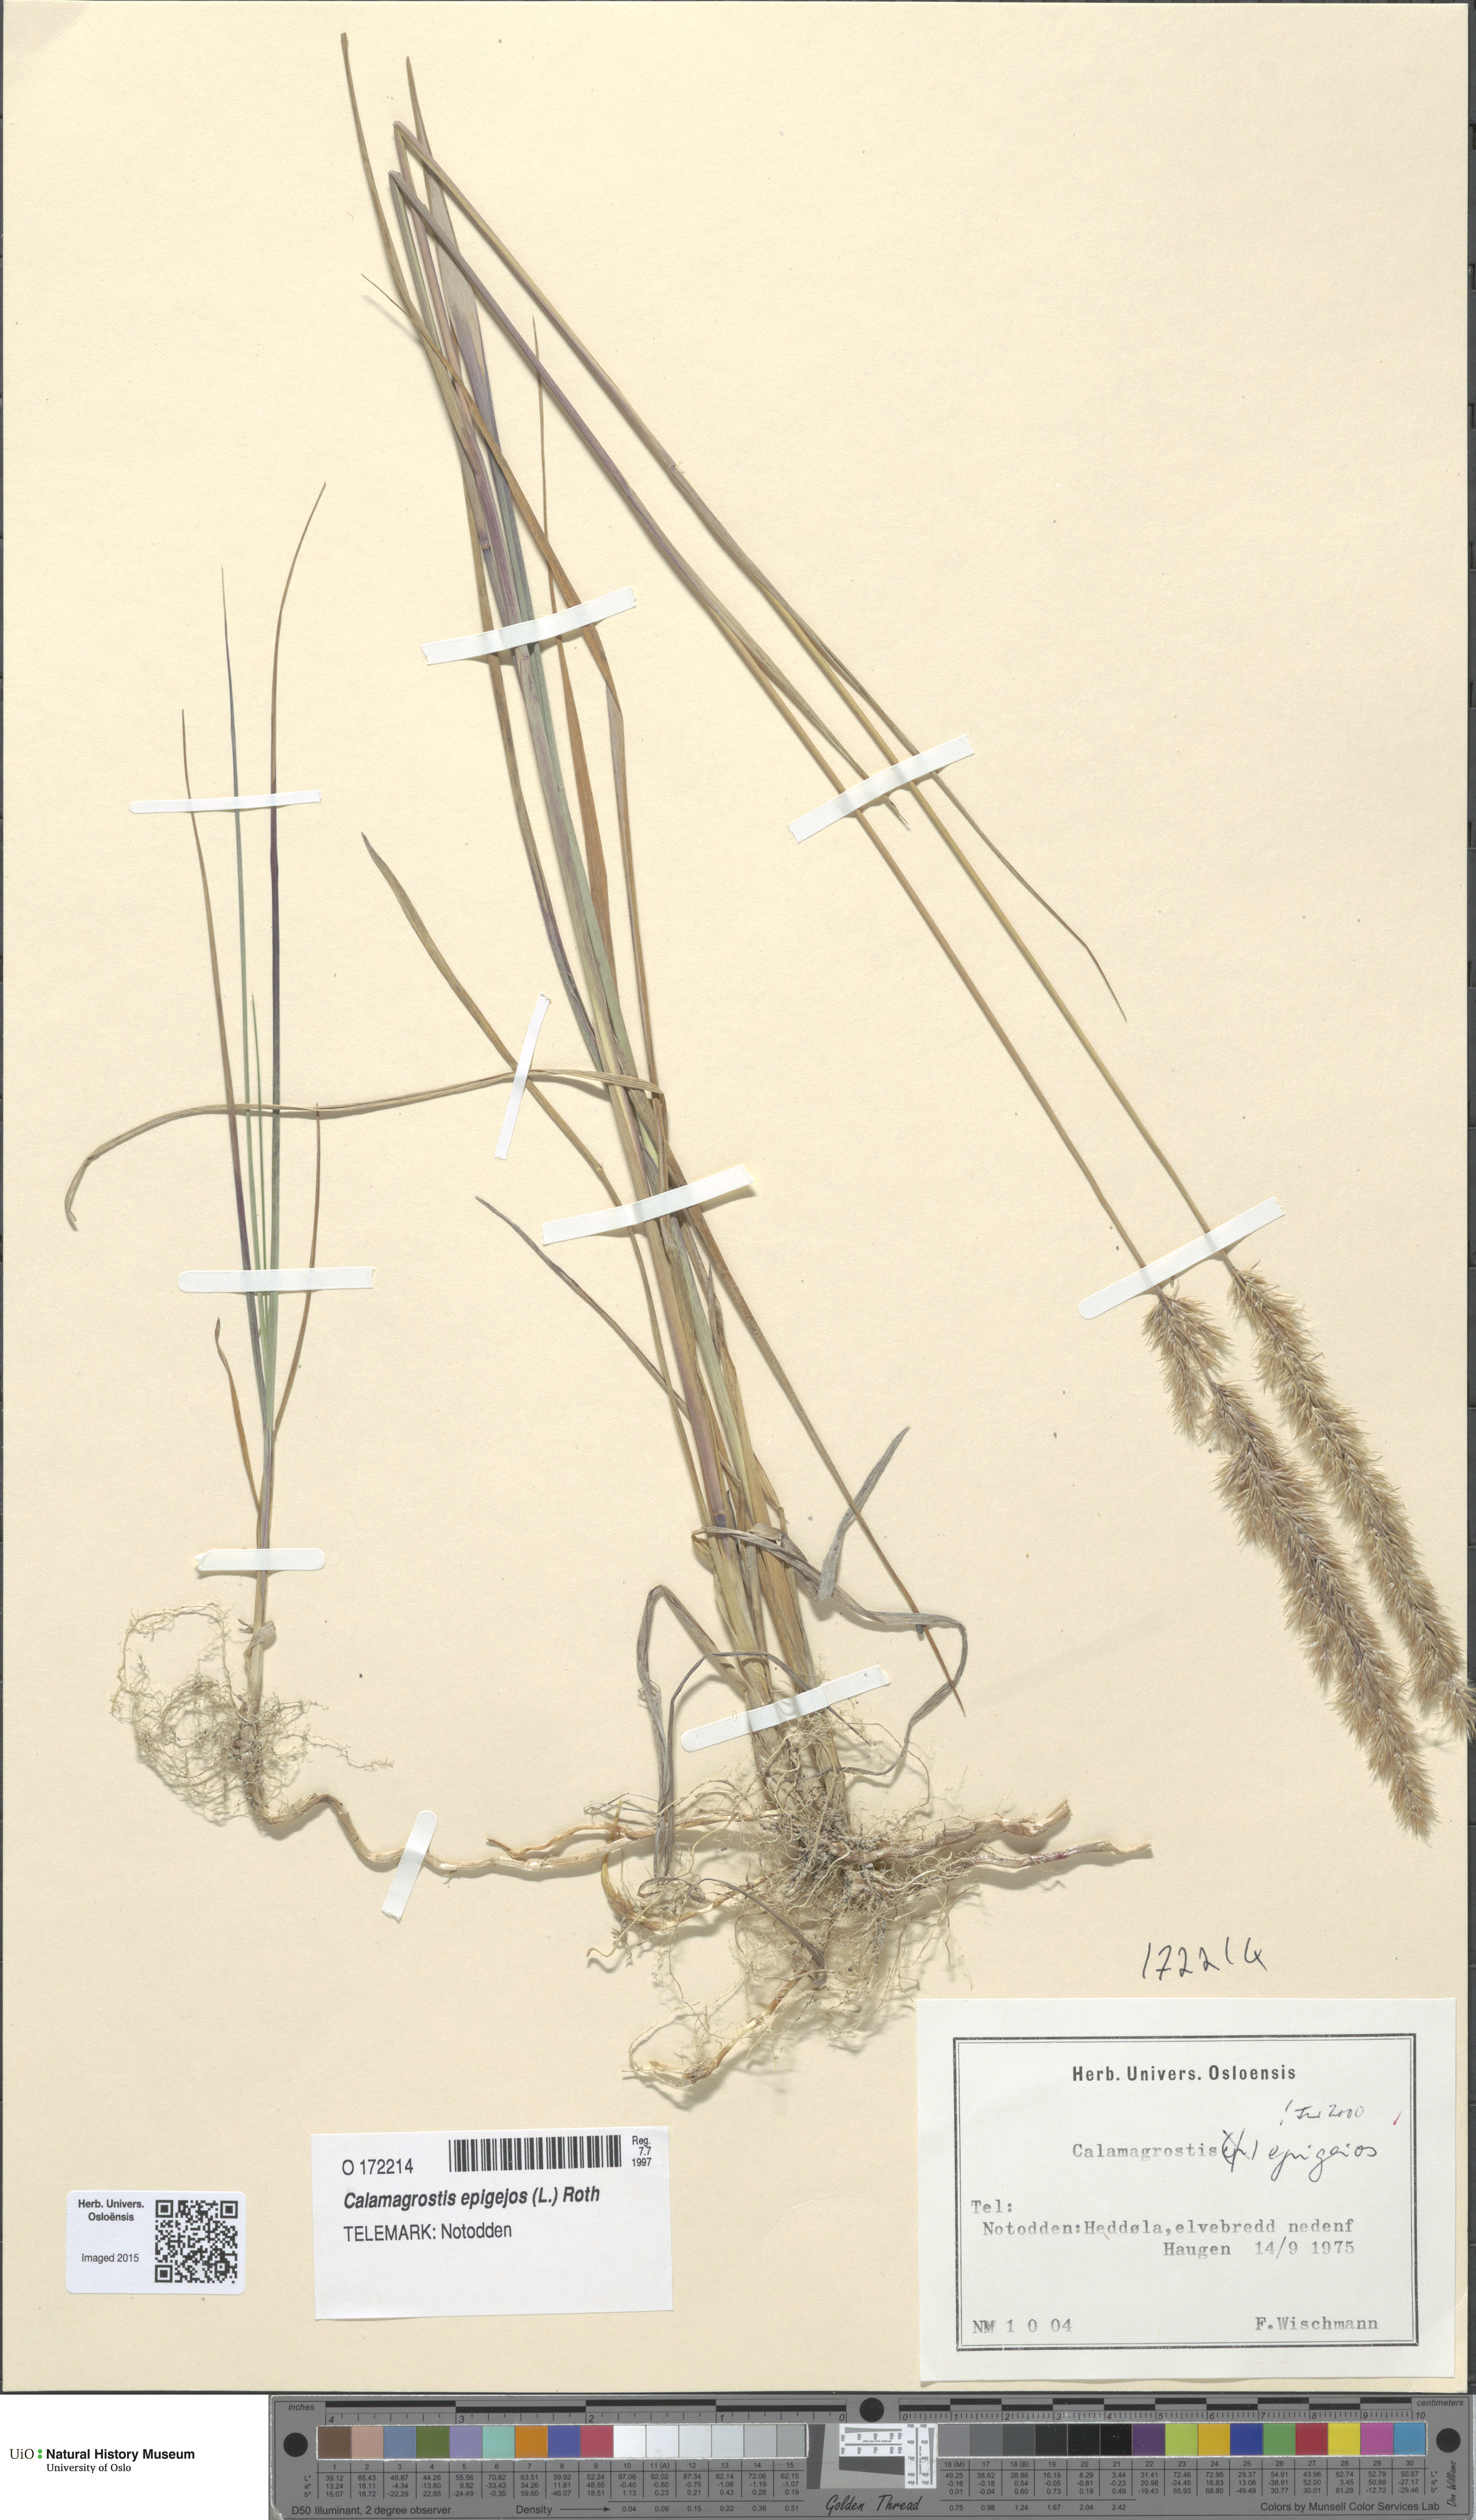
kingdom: Plantae
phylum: Tracheophyta
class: Liliopsida
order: Poales
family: Poaceae
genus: Calamagrostis
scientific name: Calamagrostis epigejos
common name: Wood small-reed
